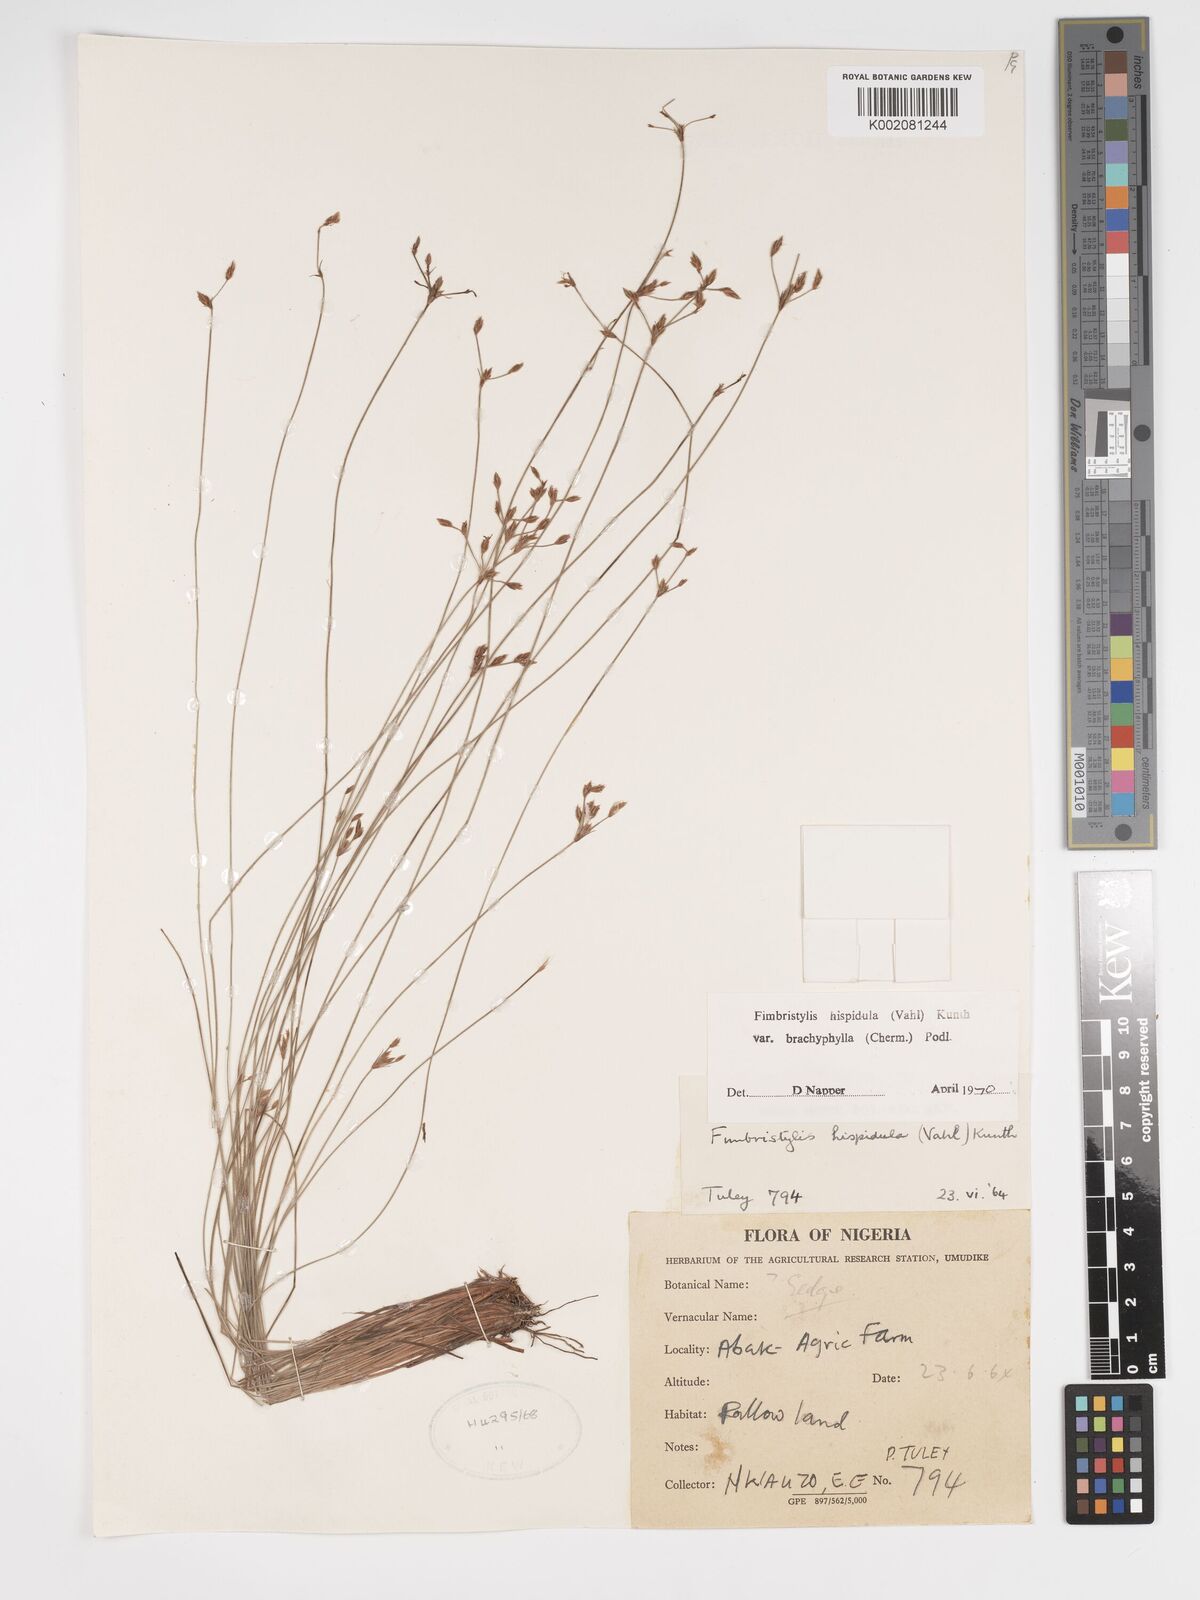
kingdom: Plantae
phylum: Tracheophyta
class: Liliopsida
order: Poales
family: Cyperaceae
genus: Bulbostylis
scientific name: Bulbostylis hispidula
